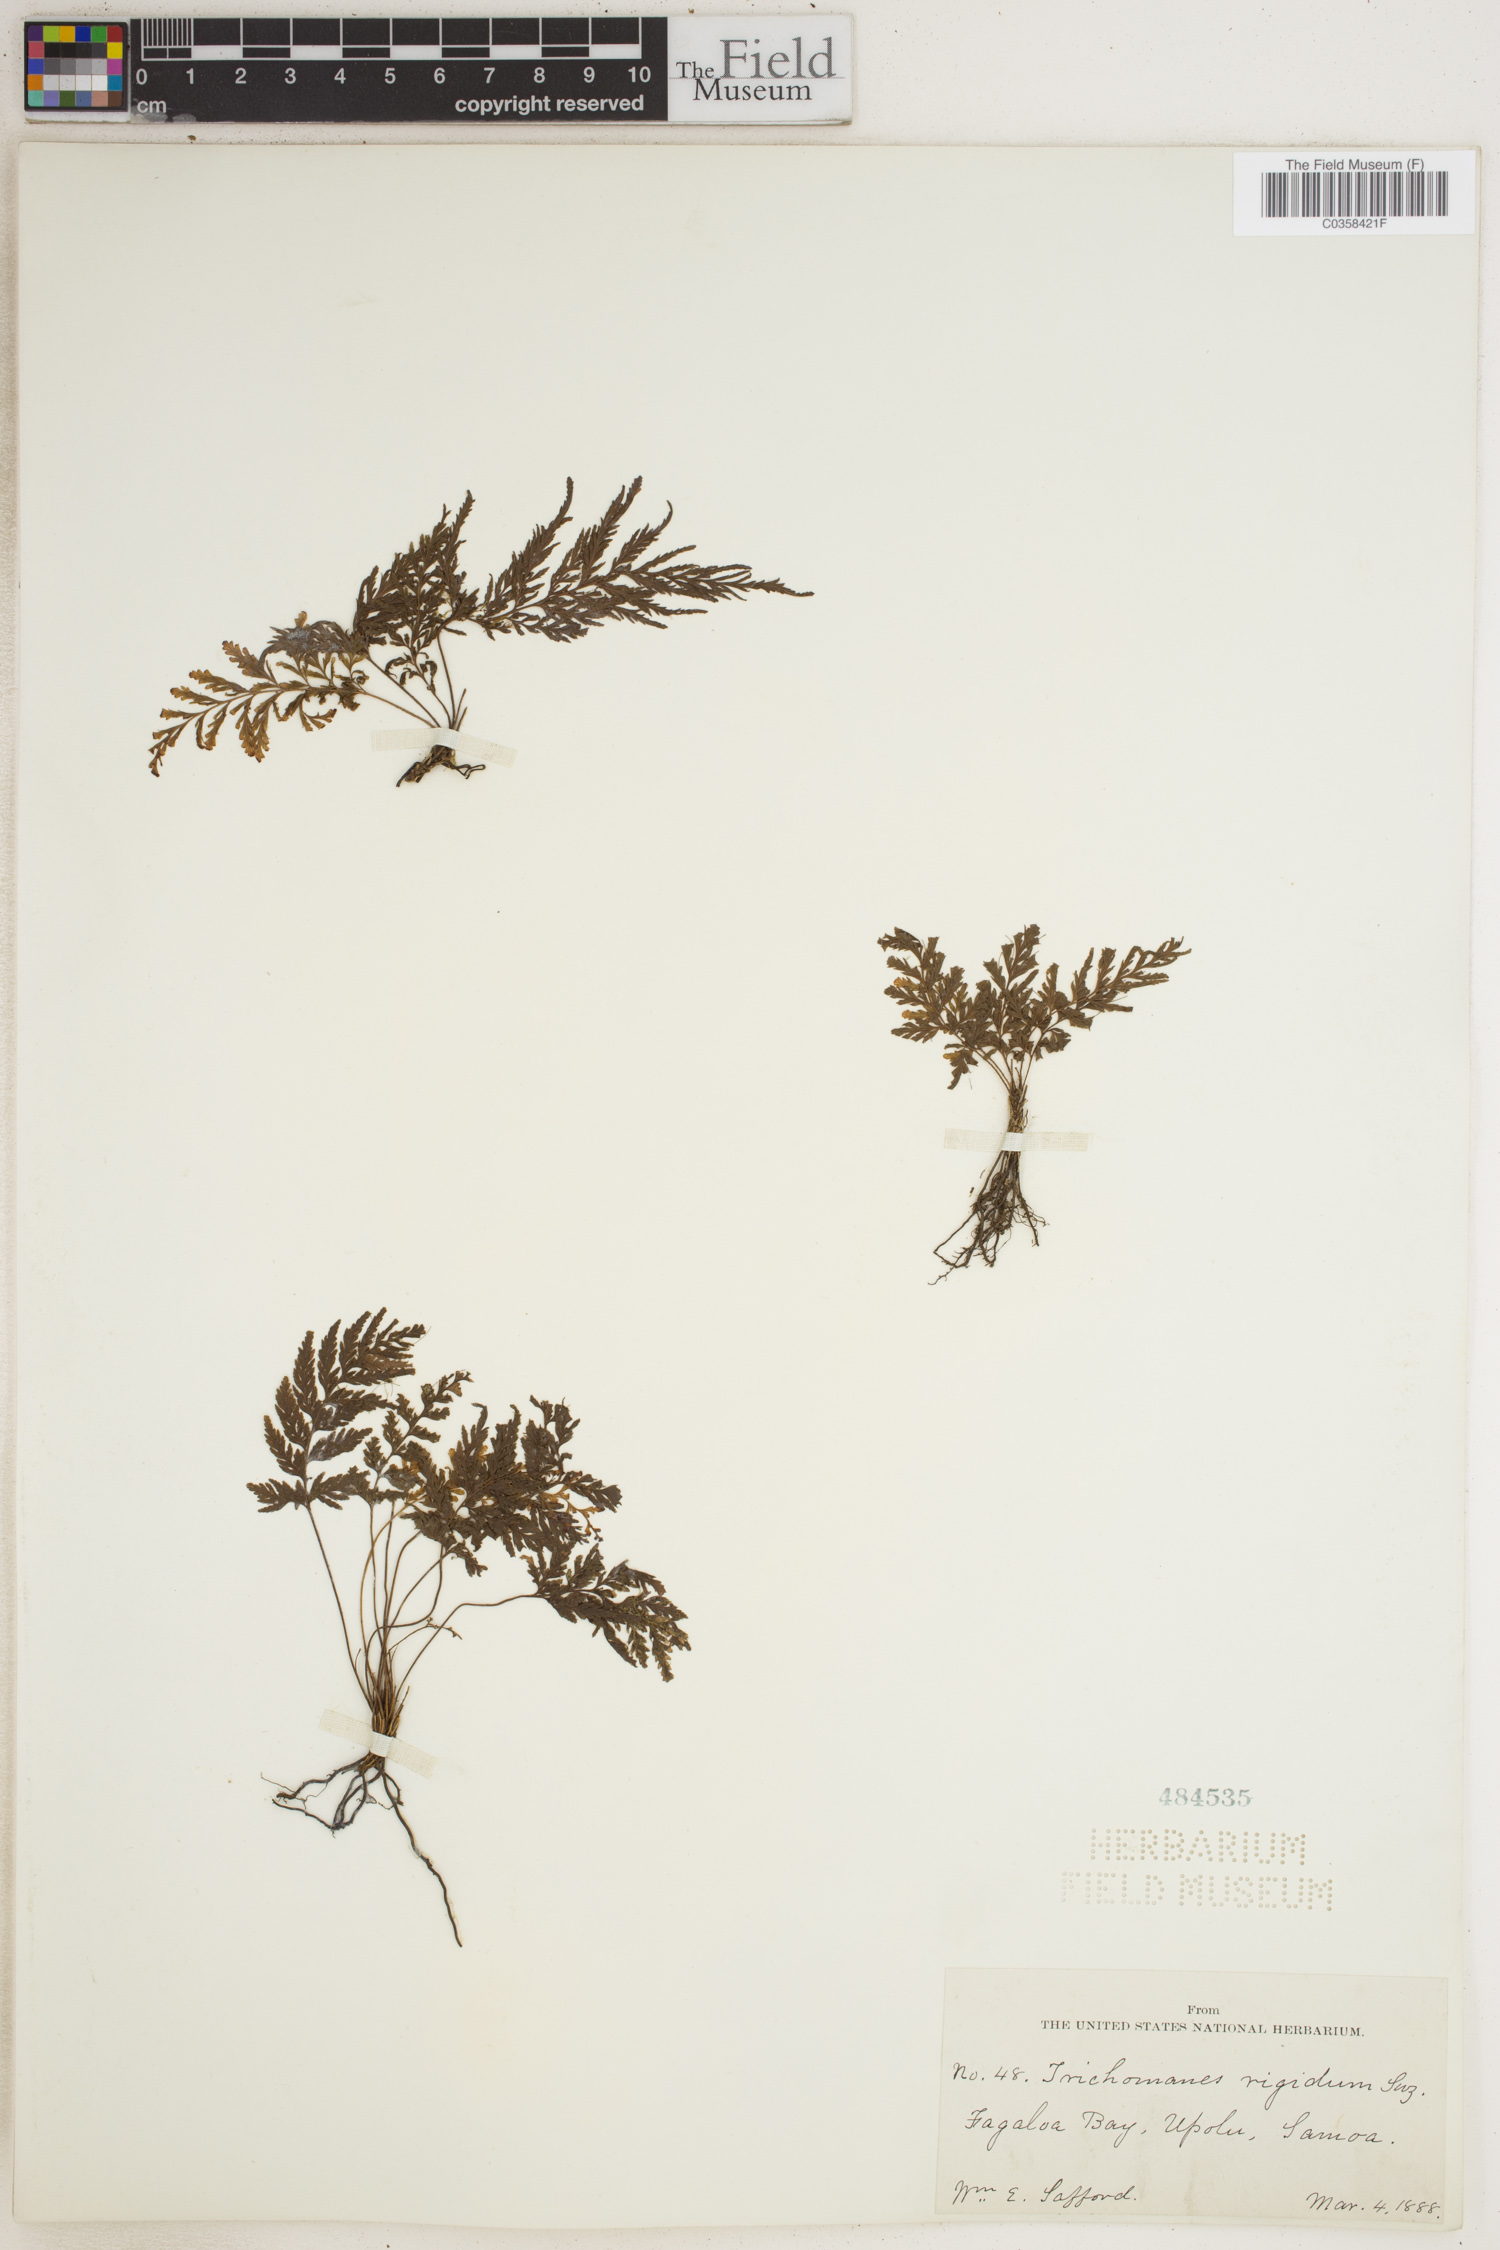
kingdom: Plantae
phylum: Tracheophyta
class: Polypodiopsida
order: Hymenophyllales
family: Hymenophyllaceae
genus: Abrodictyum
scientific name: Abrodictyum rigidum
